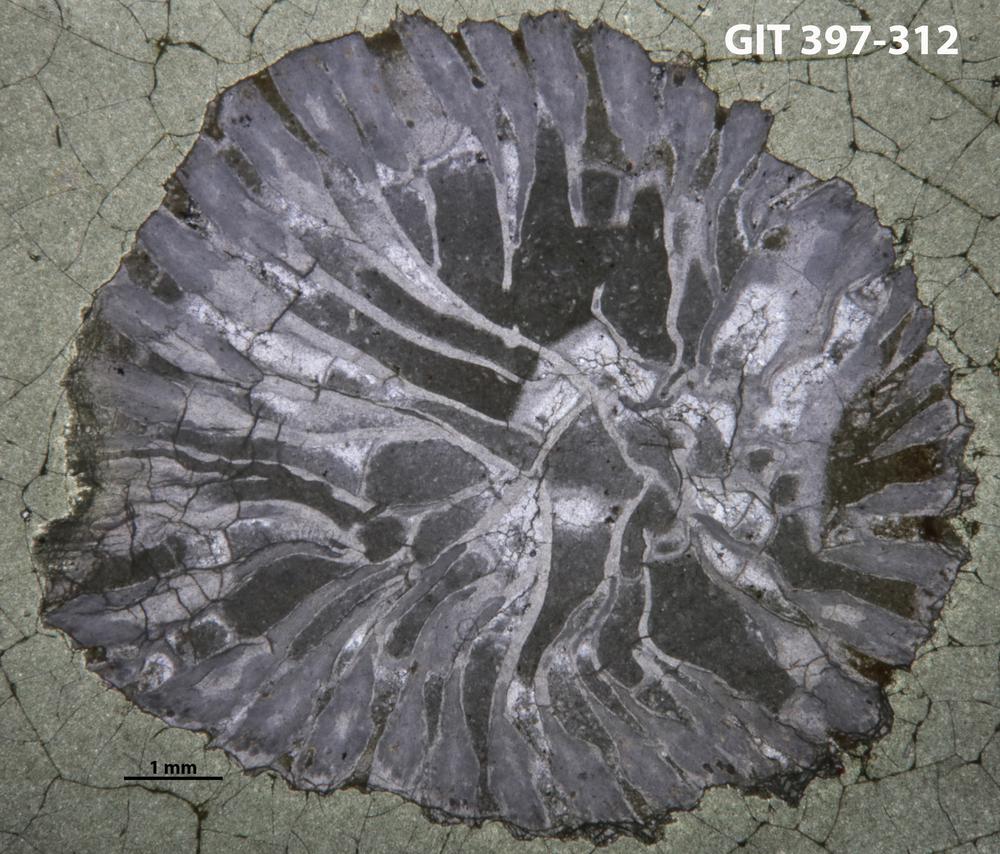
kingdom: Animalia
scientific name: Animalia
